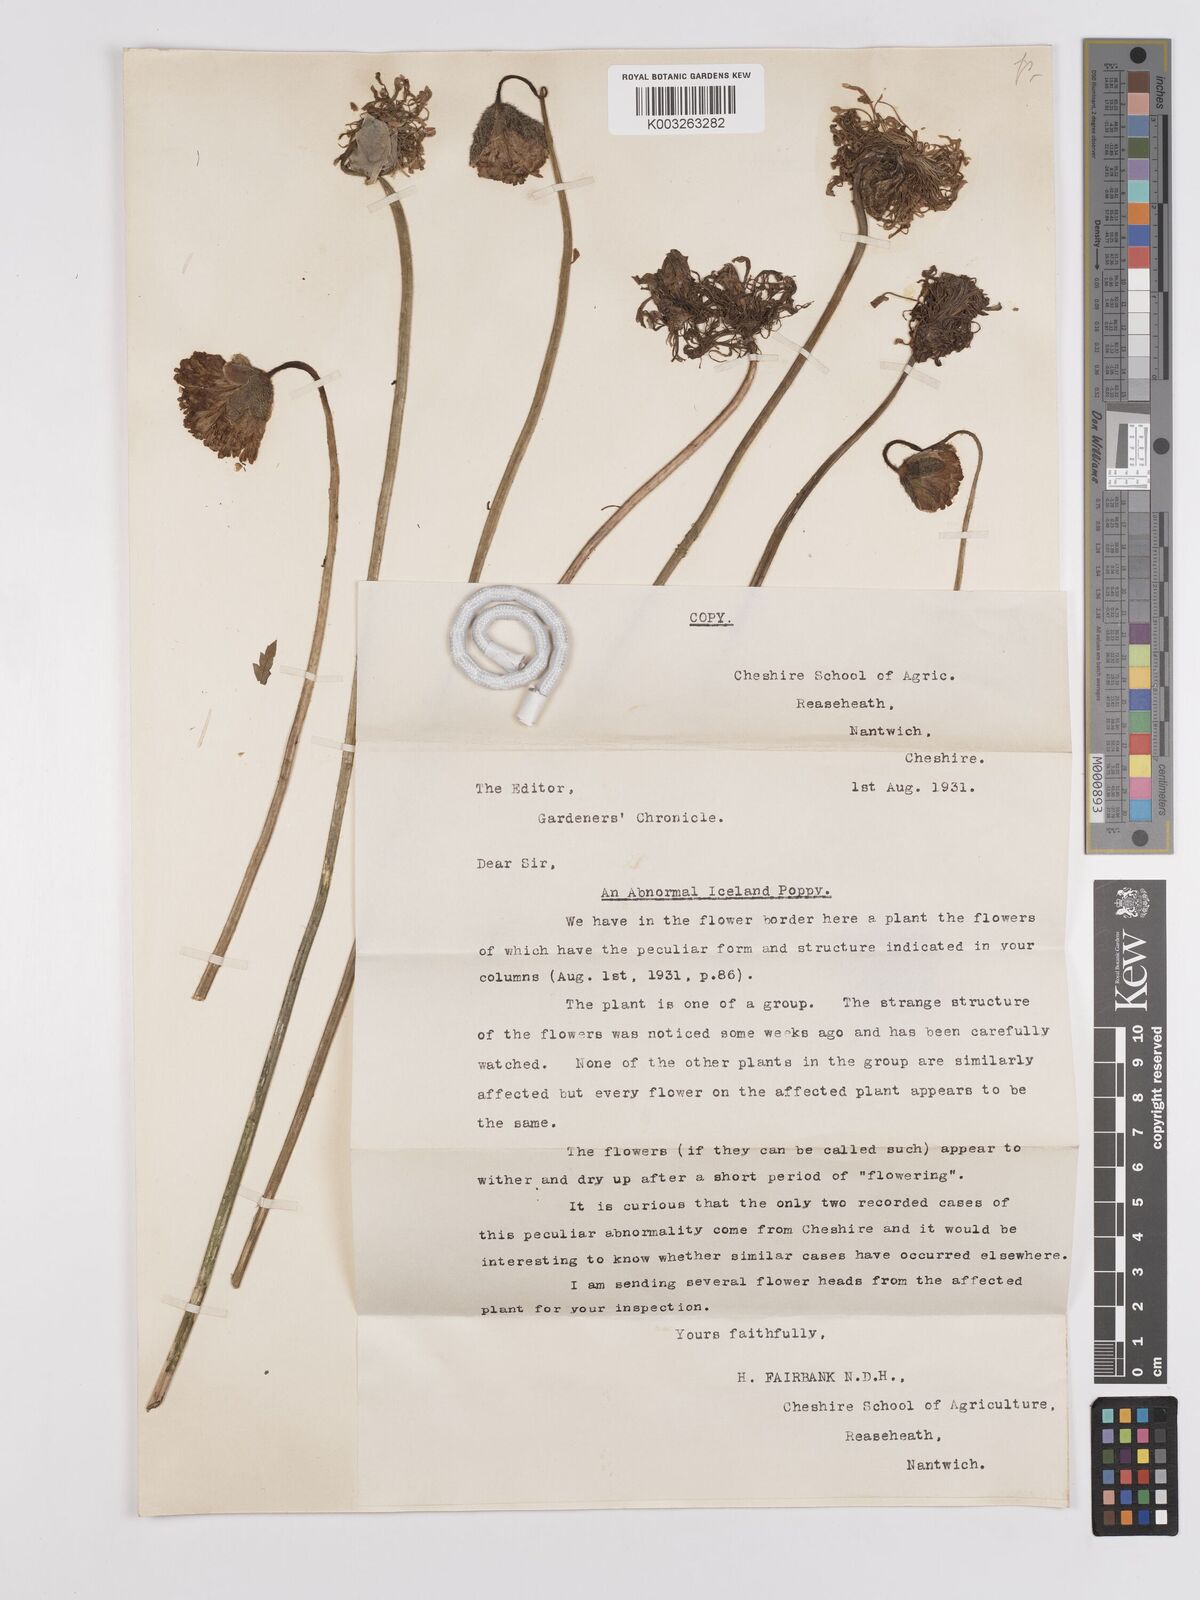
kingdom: Plantae
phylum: Tracheophyta
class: Magnoliopsida
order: Ranunculales
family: Papaveraceae
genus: Papaver
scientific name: Papaver
